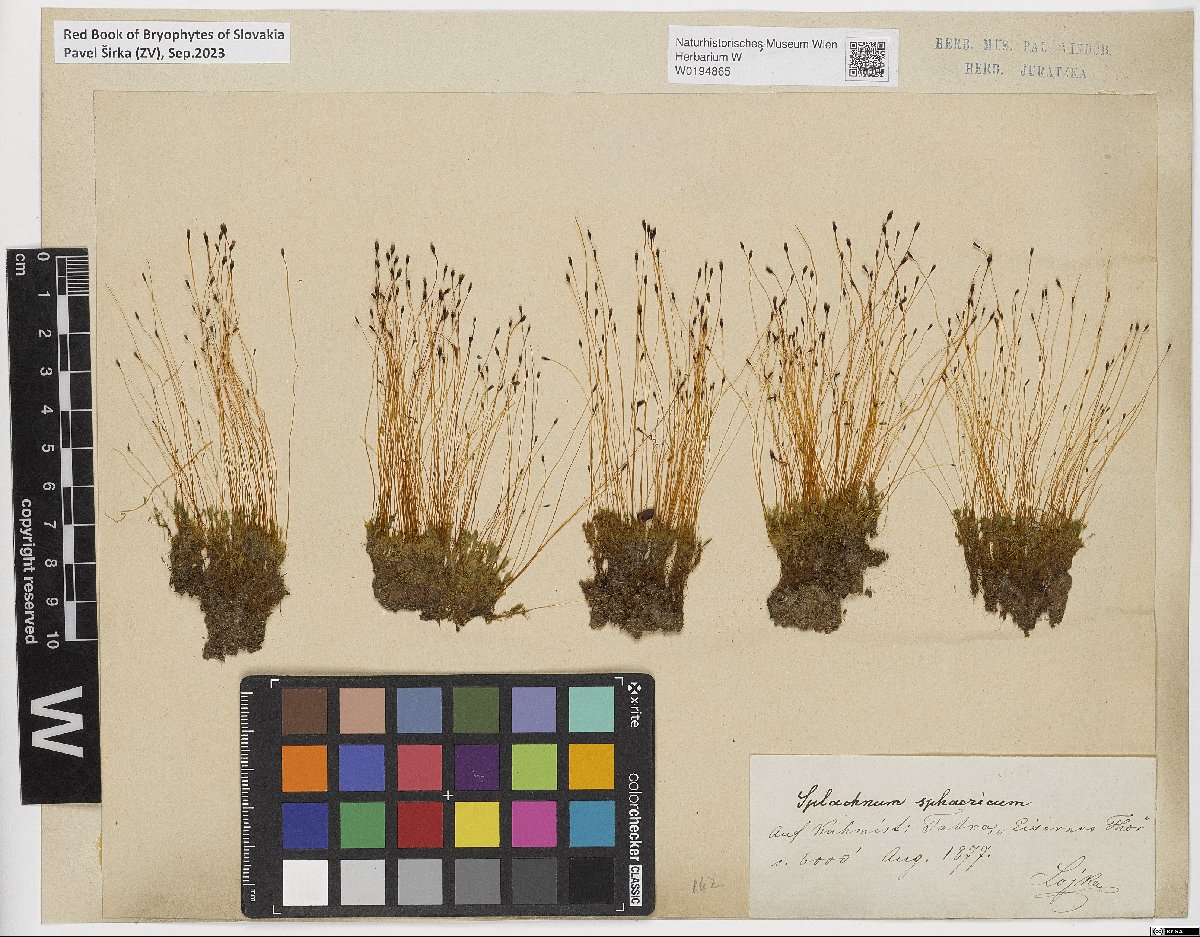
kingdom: Plantae
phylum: Bryophyta
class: Bryopsida
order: Splachnales
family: Splachnaceae
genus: Splachnum
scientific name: Splachnum sphaericum
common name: Round-fruited dung moss
